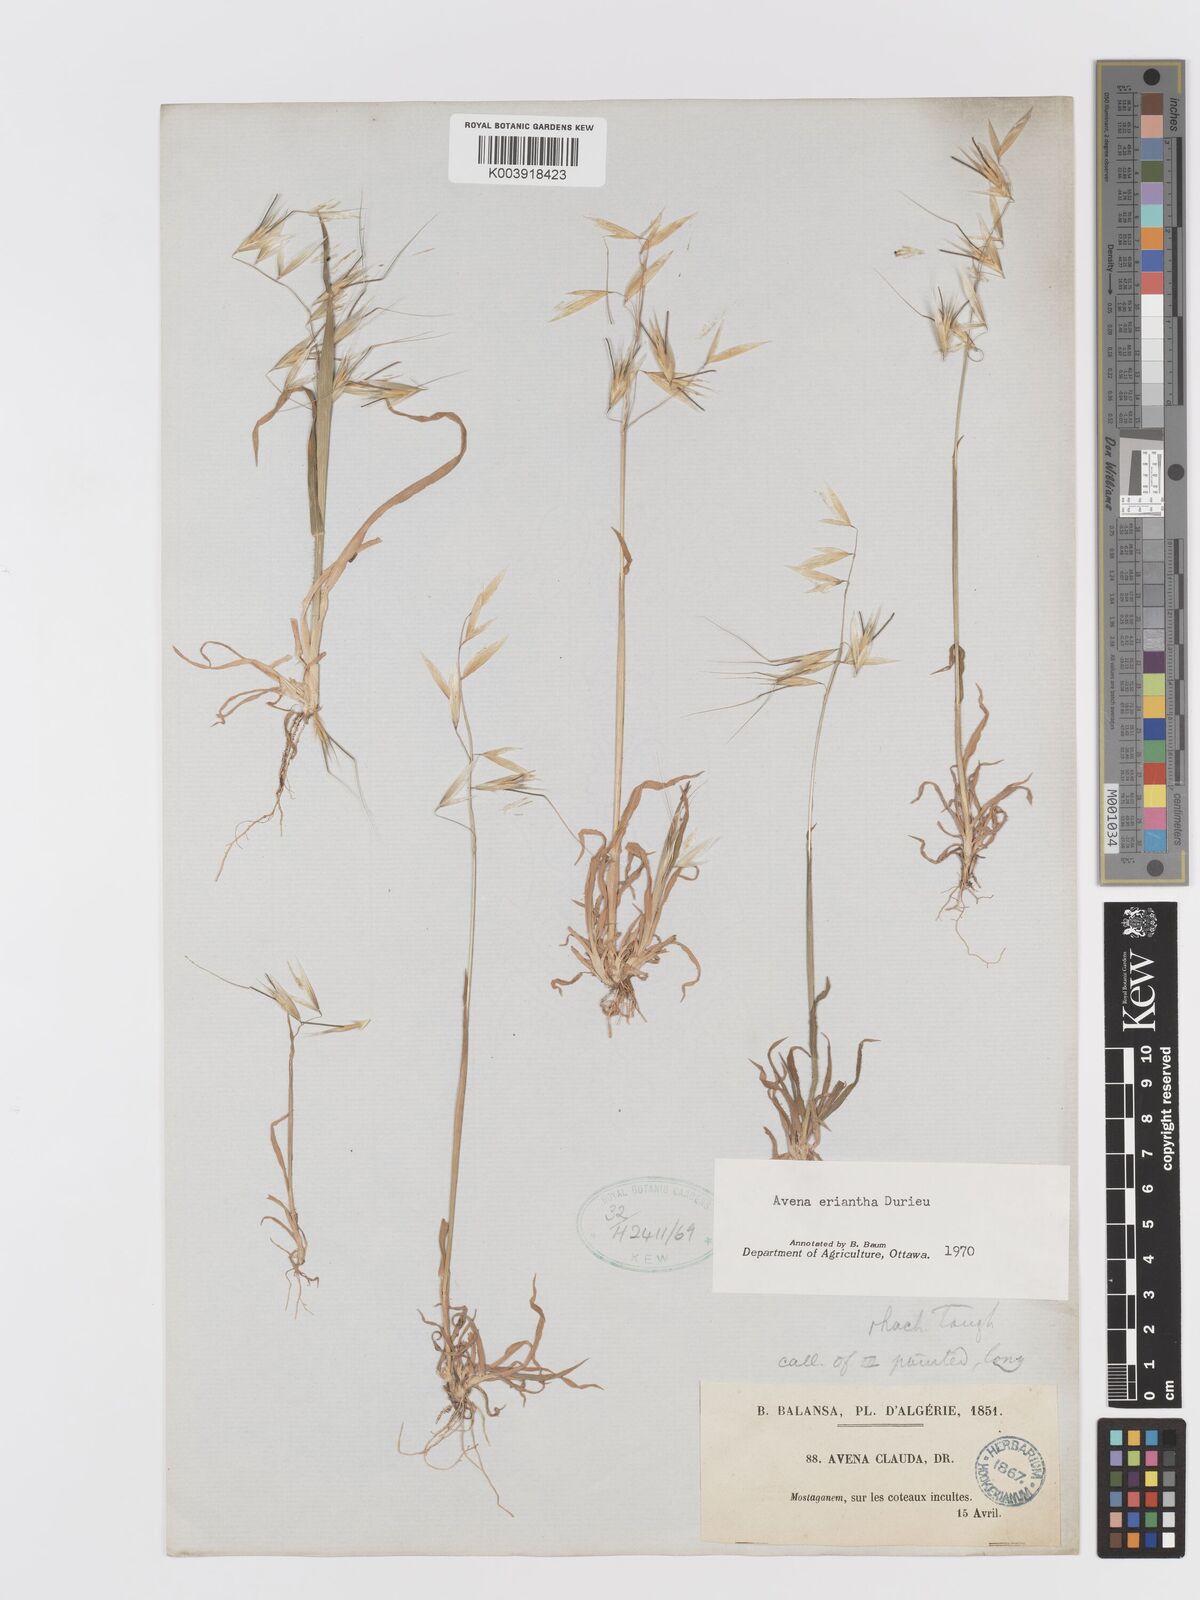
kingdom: Plantae
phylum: Tracheophyta
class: Liliopsida
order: Poales
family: Poaceae
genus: Avena
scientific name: Avena eriantha
